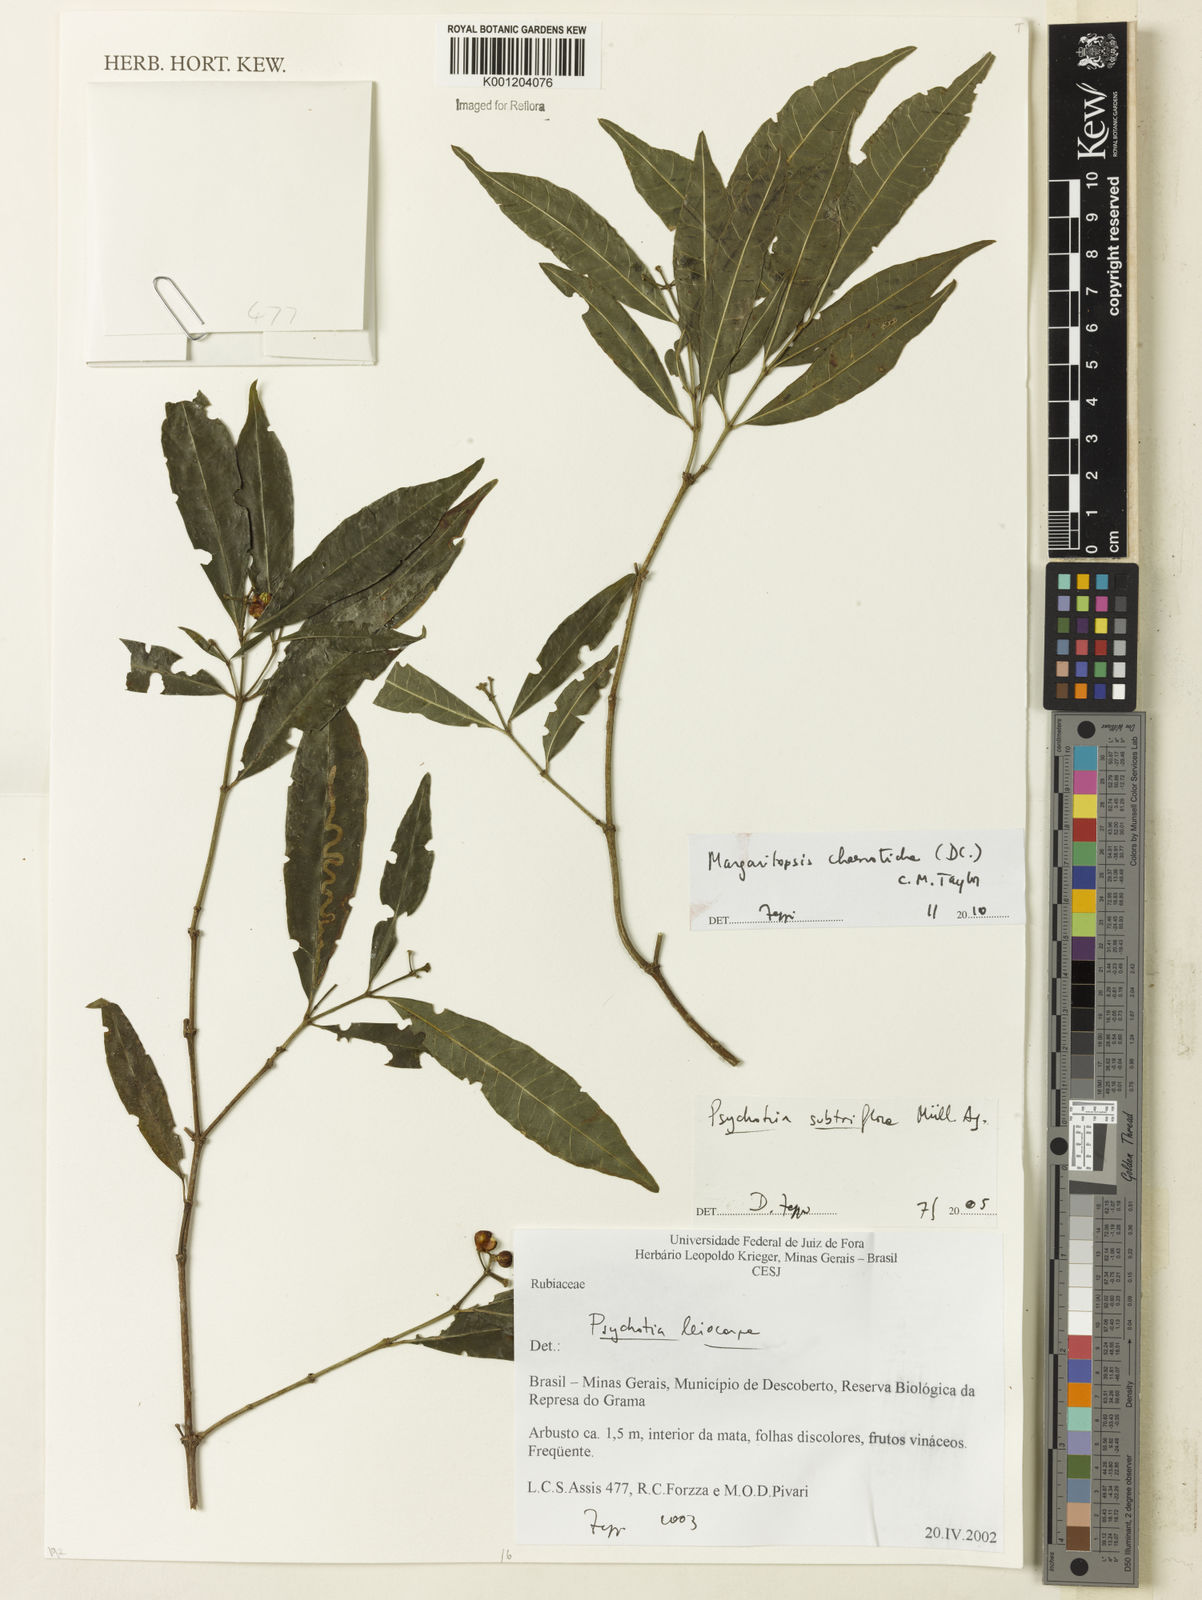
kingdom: Plantae
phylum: Tracheophyta
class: Magnoliopsida
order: Gentianales
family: Rubiaceae
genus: Eumachia
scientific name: Eumachia chaenotricha
